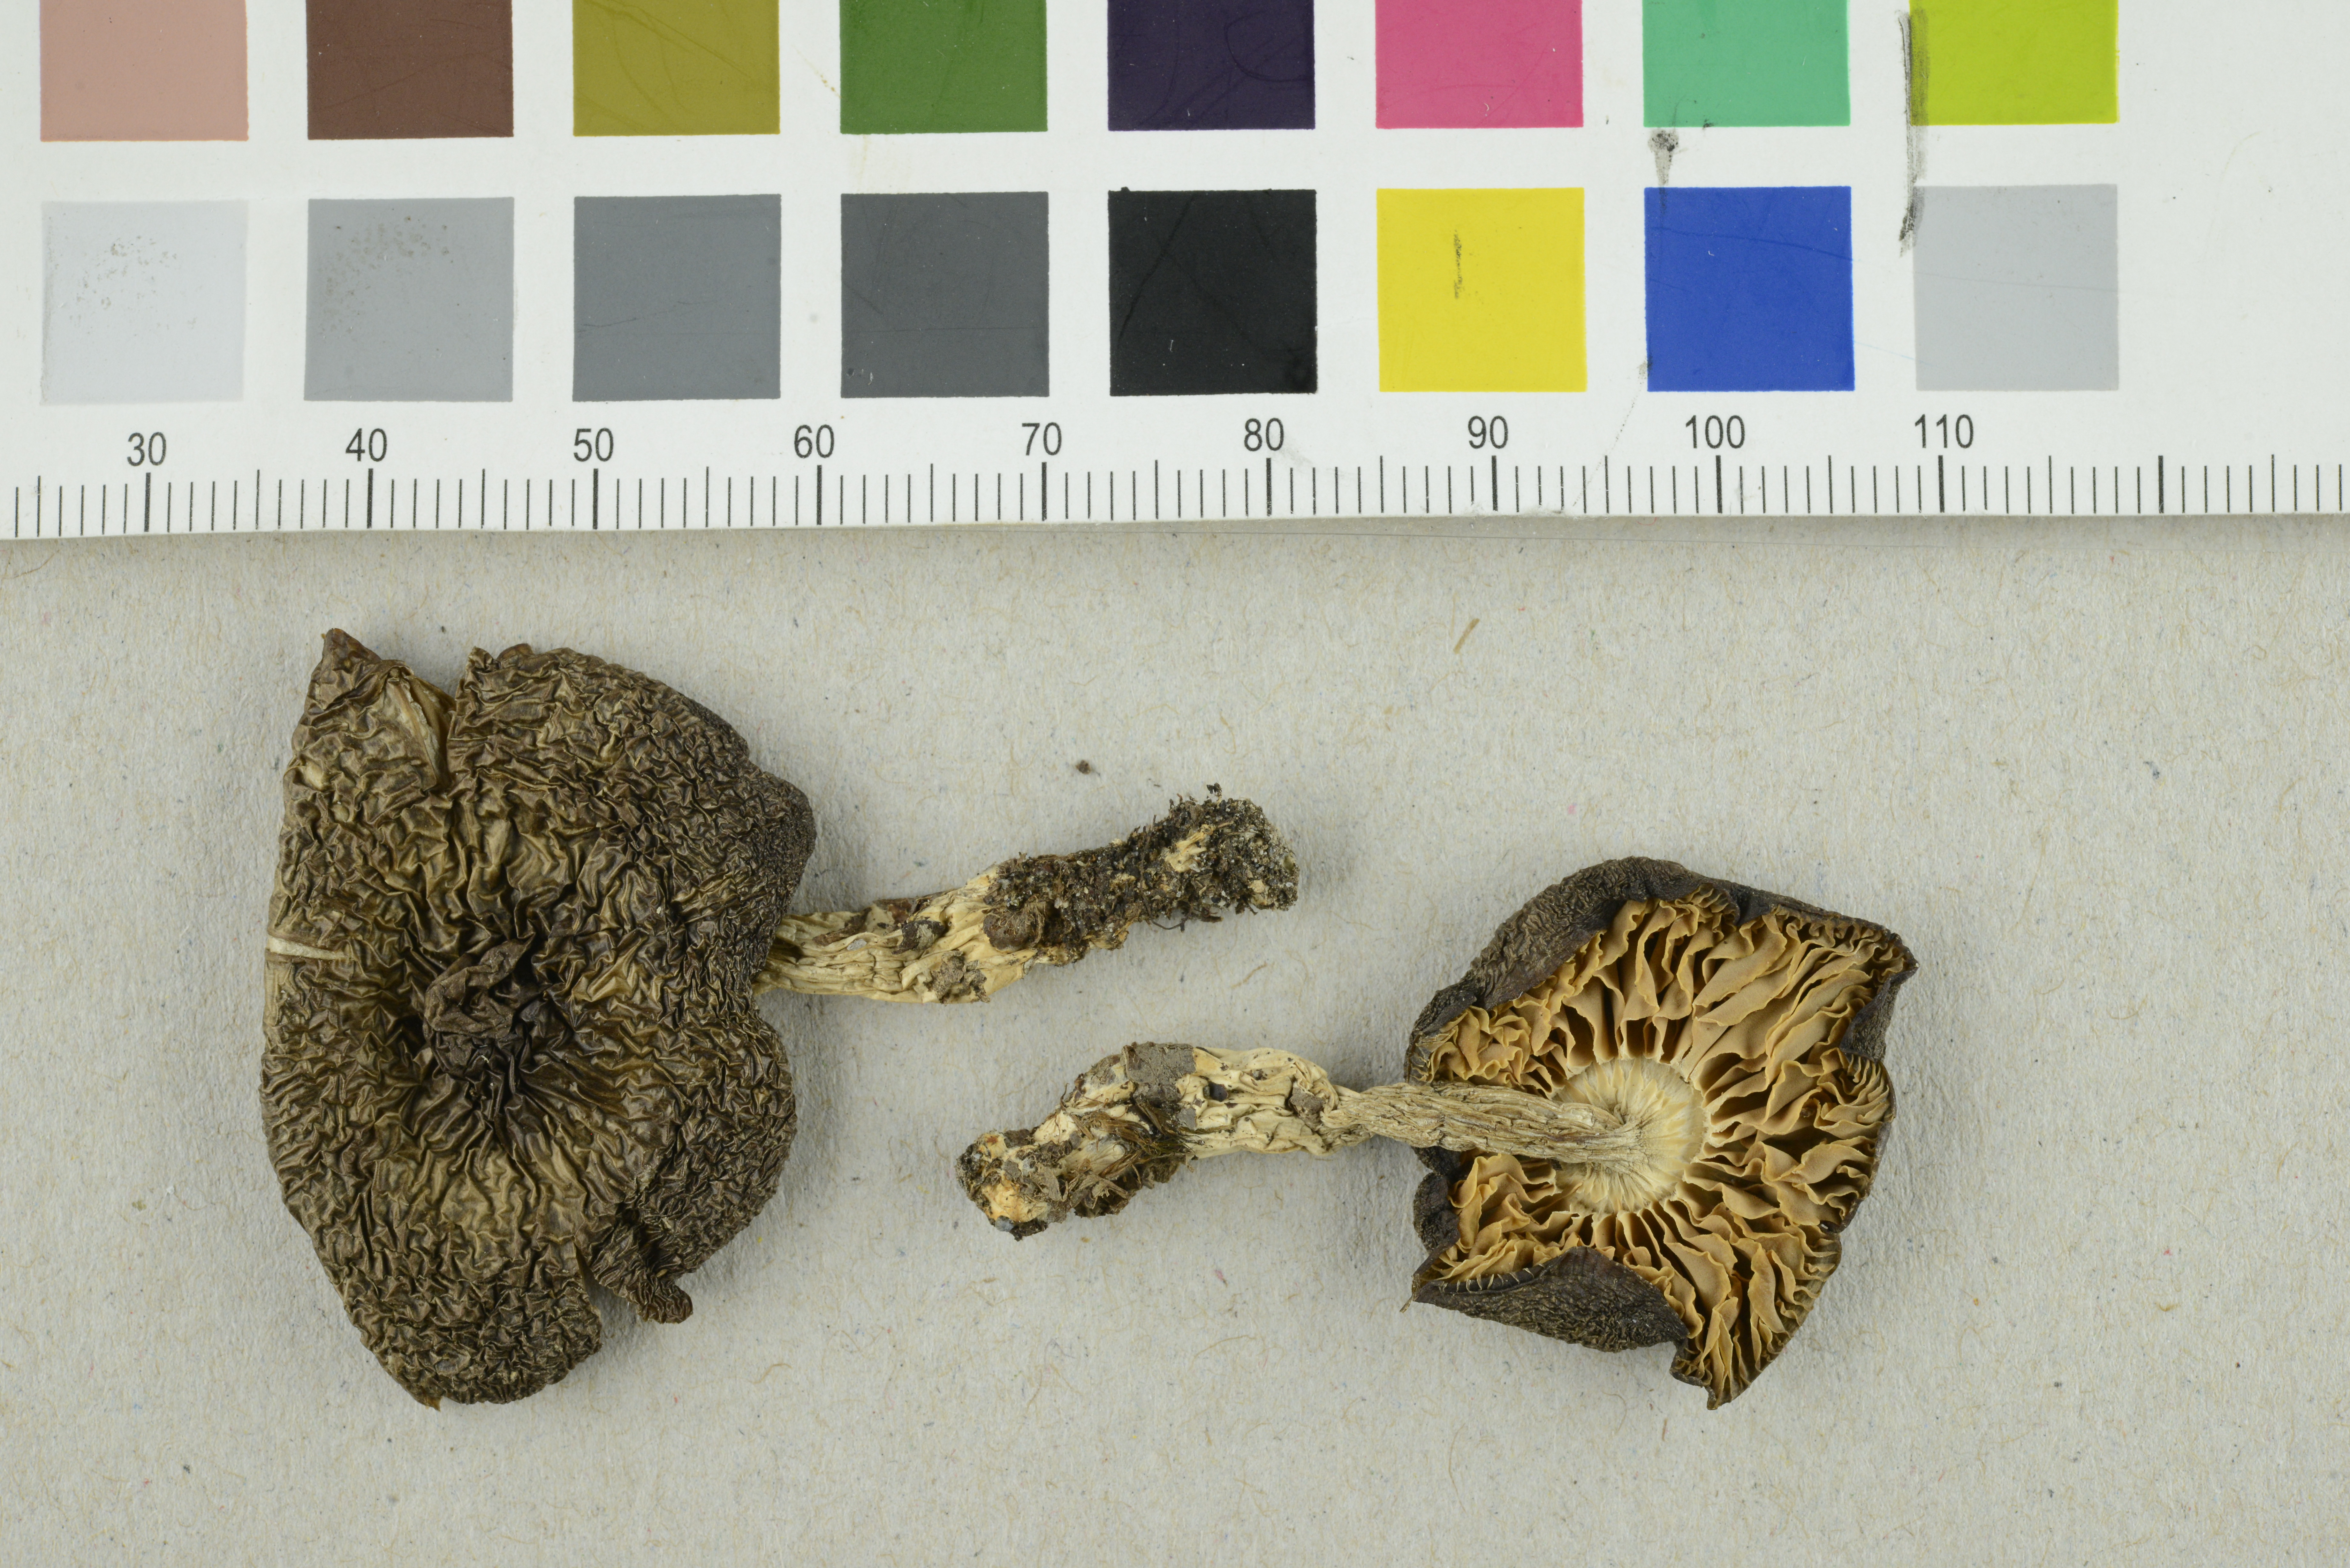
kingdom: Fungi
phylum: Basidiomycota
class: Agaricomycetes
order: Agaricales
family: Entolomataceae
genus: Entoloma
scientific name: Entoloma majaloides
